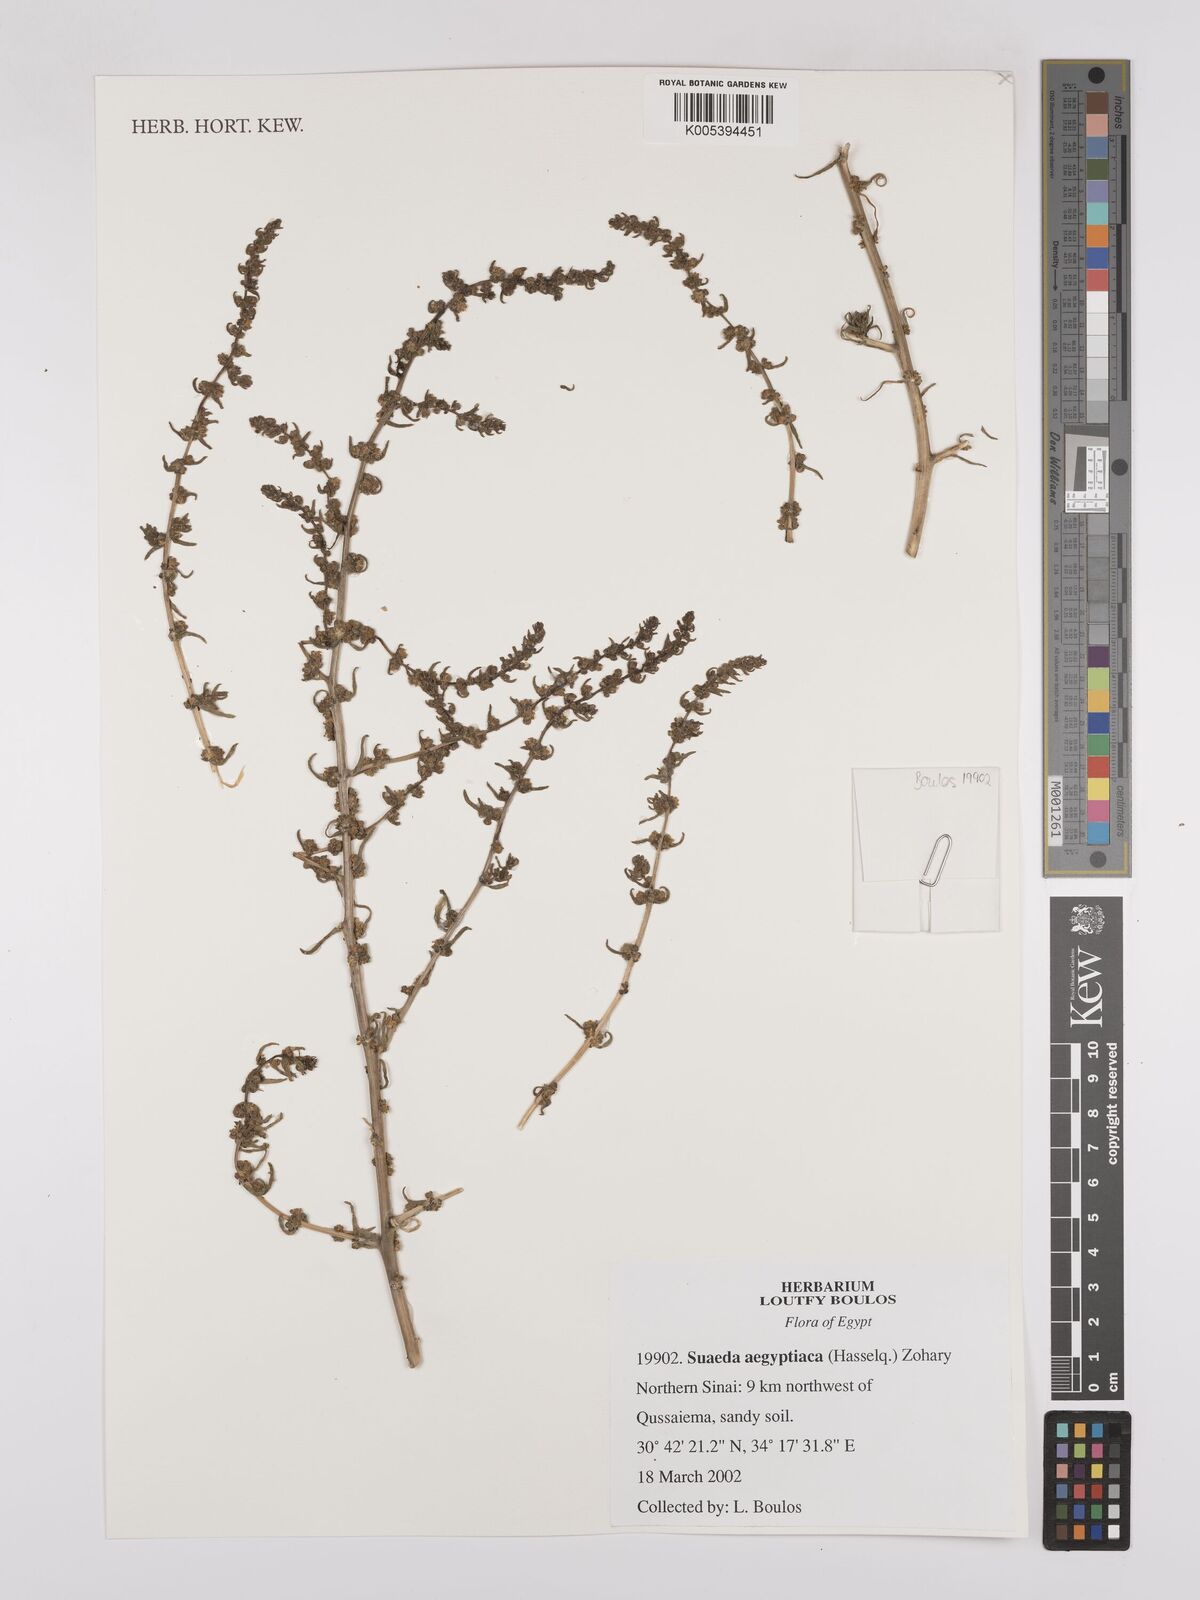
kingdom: Plantae
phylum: Tracheophyta
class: Magnoliopsida
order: Caryophyllales
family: Amaranthaceae
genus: Suaeda
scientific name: Suaeda aegyptiaca
